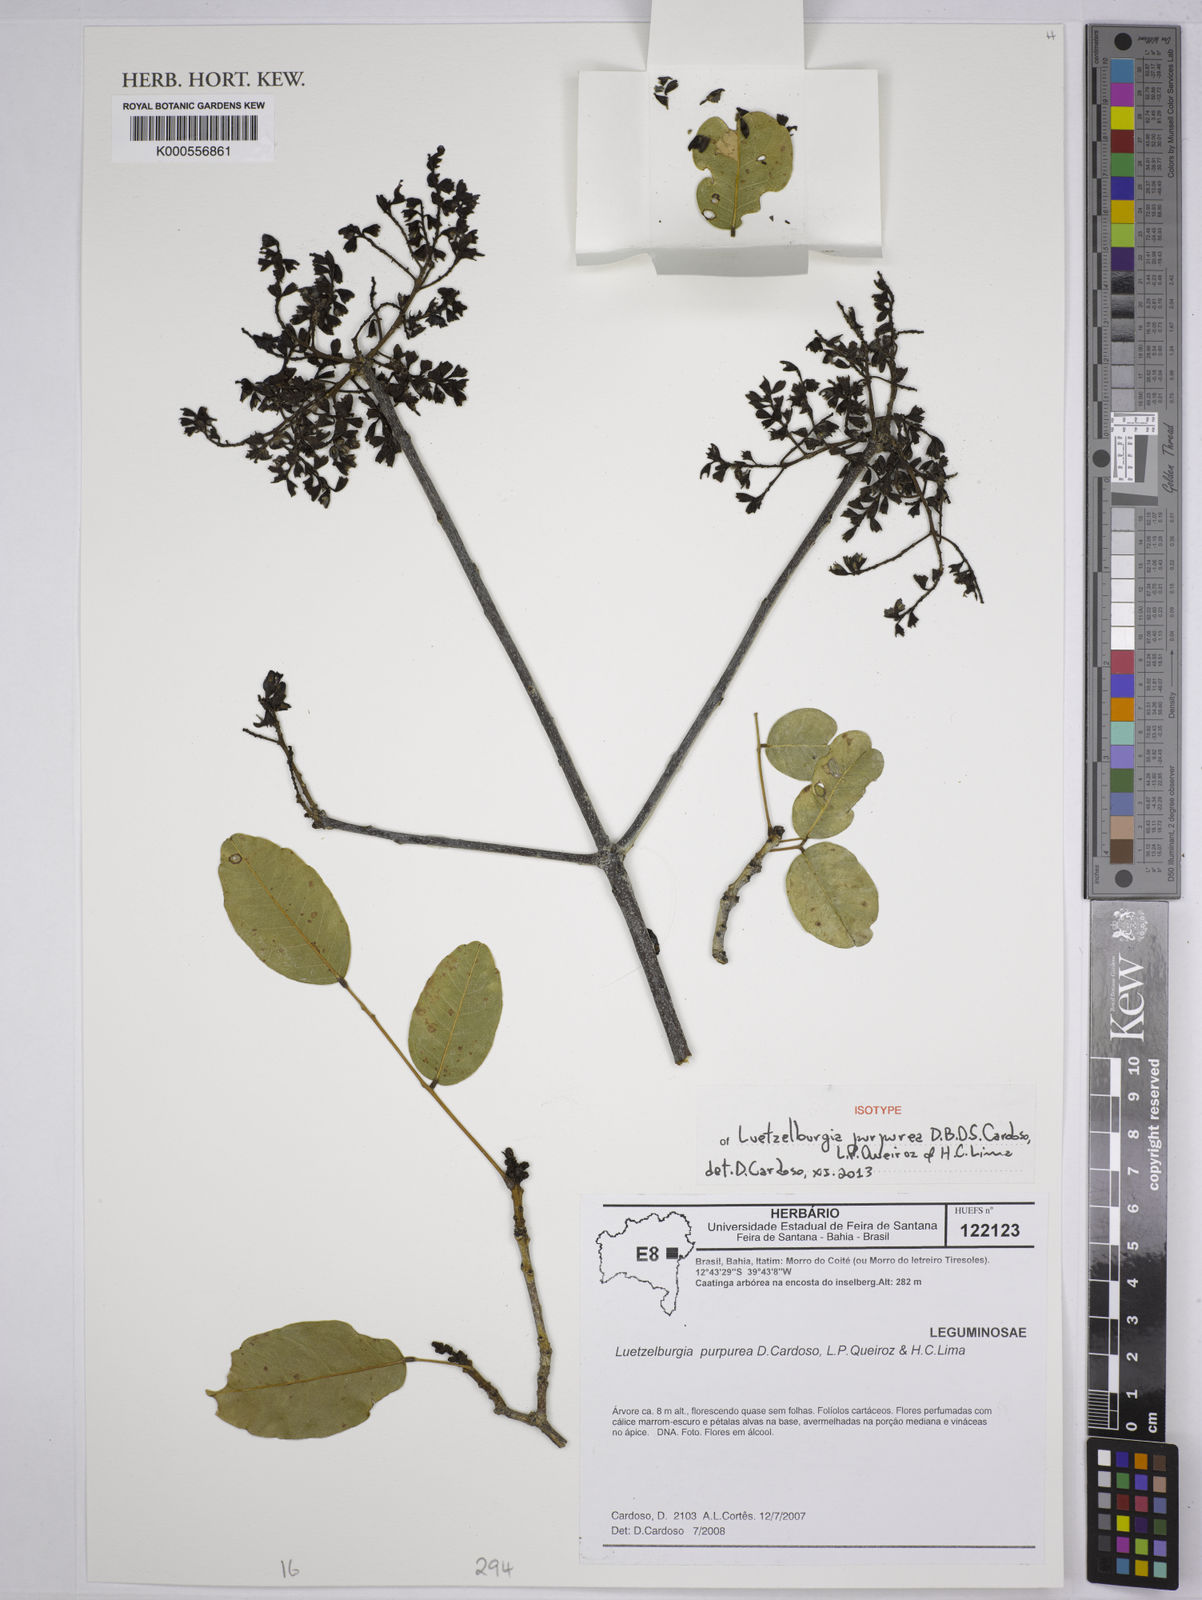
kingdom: Plantae
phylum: Tracheophyta
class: Magnoliopsida
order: Fabales
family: Fabaceae
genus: Luetzelburgia
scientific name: Luetzelburgia purpurea
